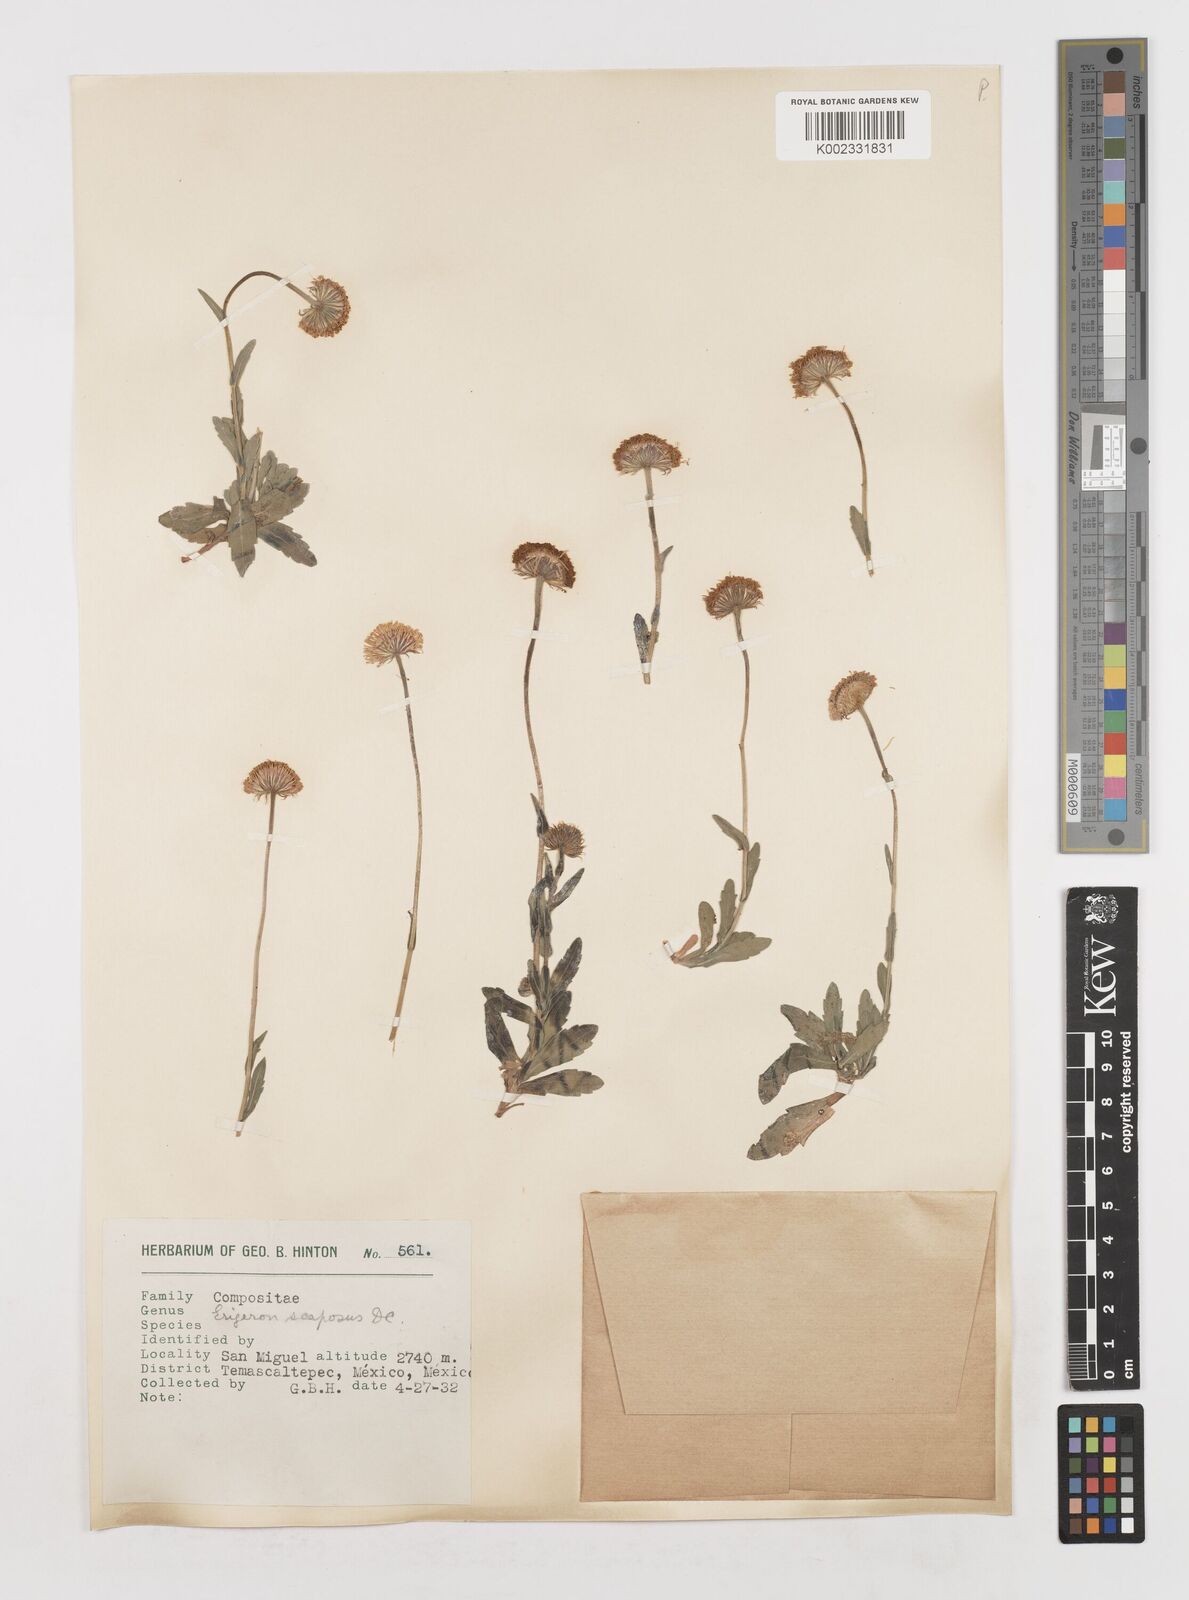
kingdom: Plantae
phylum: Tracheophyta
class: Magnoliopsida
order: Asterales
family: Asteraceae
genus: Erigeron
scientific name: Erigeron longipes
